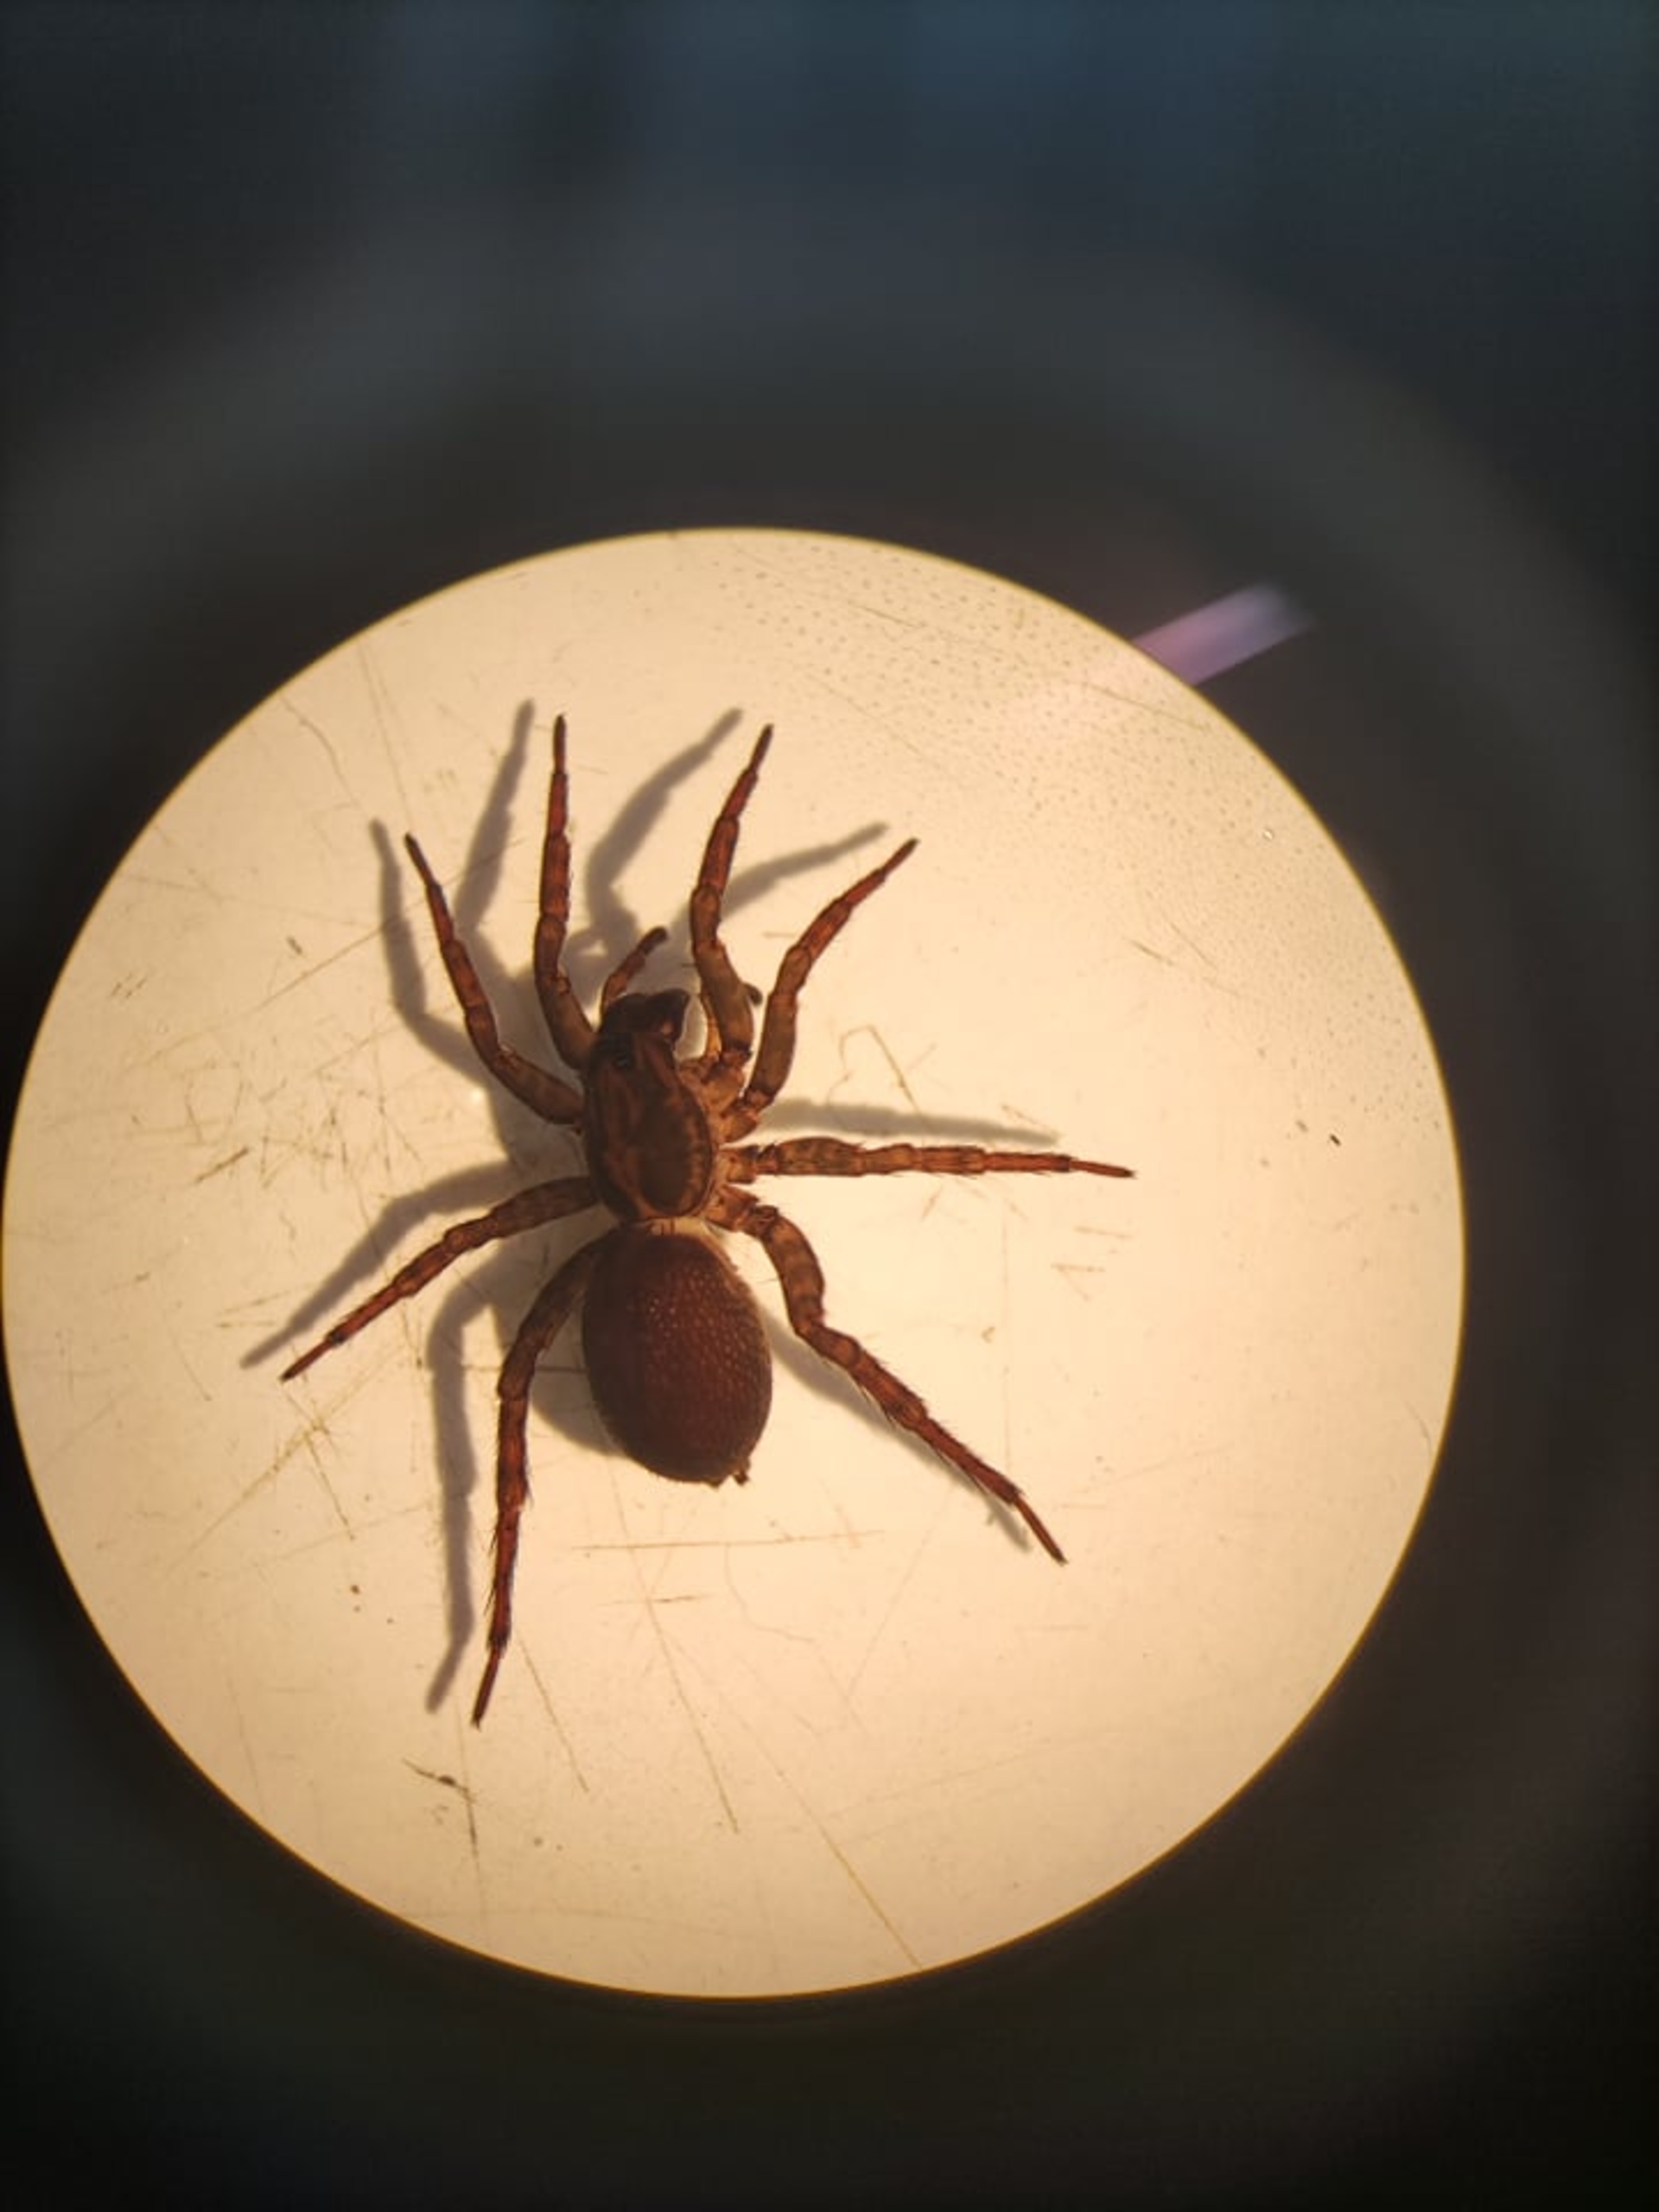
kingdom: Animalia
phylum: Arthropoda
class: Arachnida
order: Araneae
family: Lycosidae
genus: Trochosa
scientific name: Trochosa
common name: Bjørneedderkopslægten
